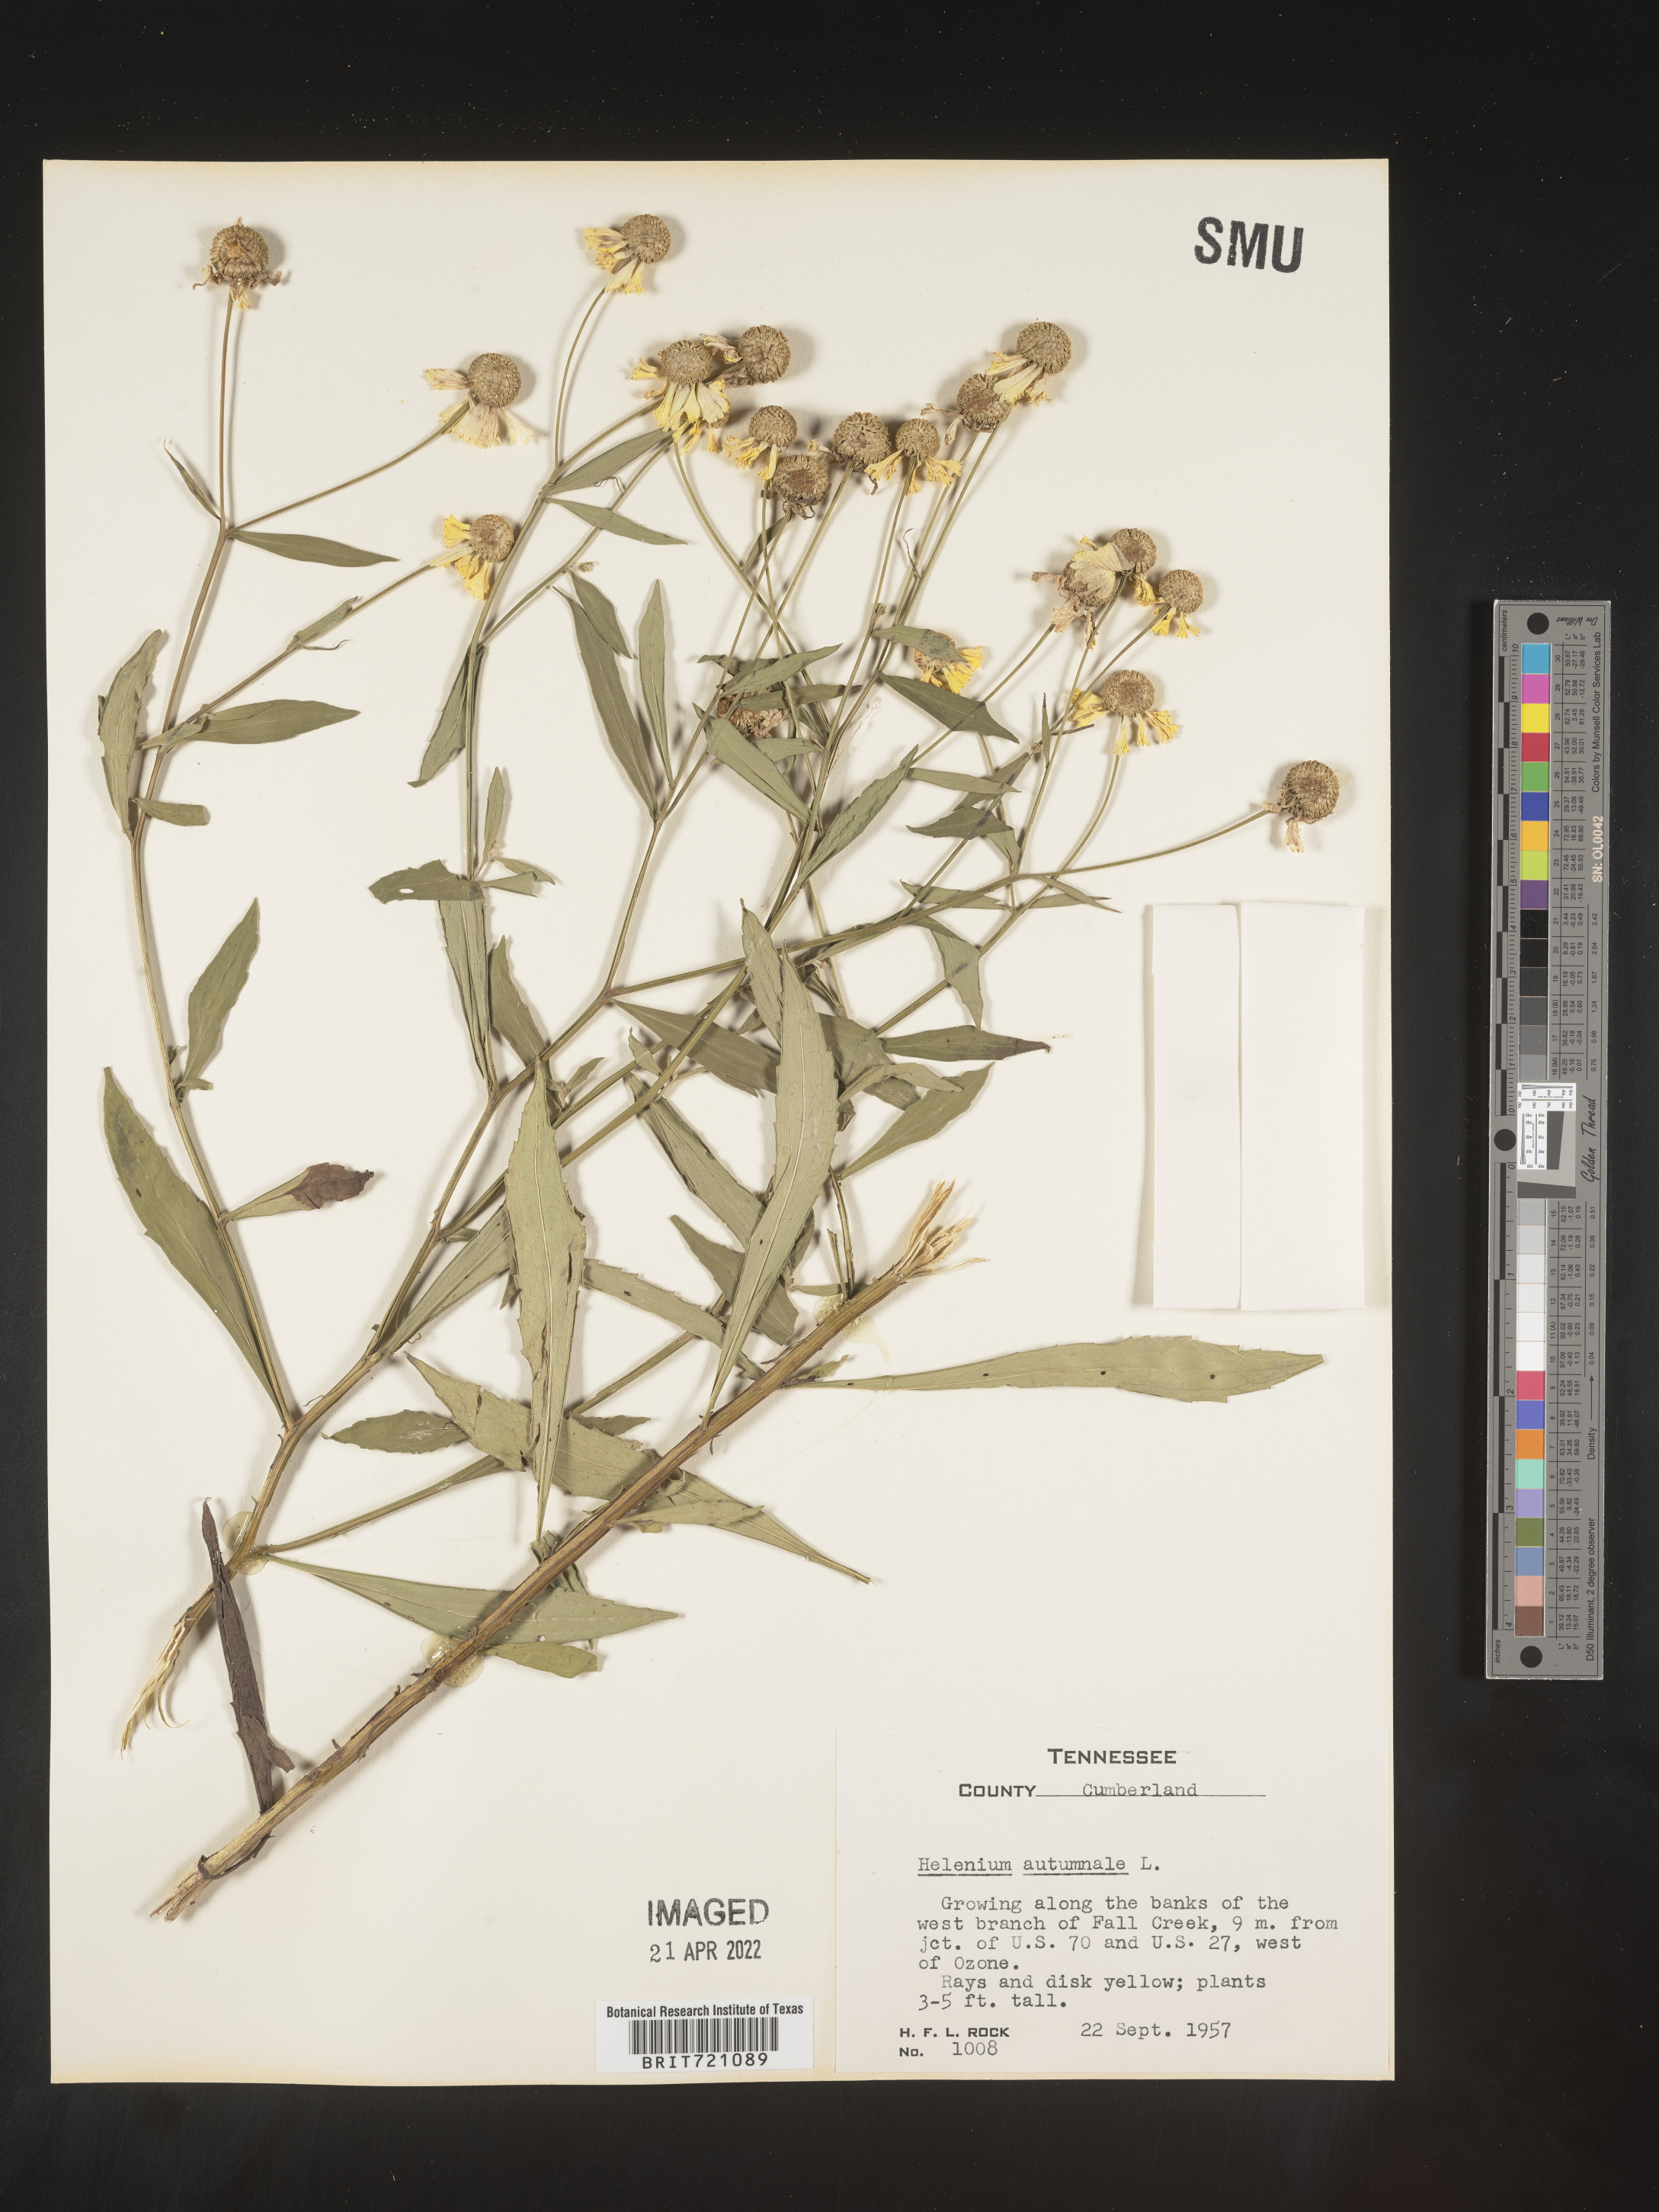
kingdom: Plantae
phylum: Tracheophyta
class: Magnoliopsida
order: Asterales
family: Asteraceae
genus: Helenium
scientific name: Helenium autumnale
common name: Sneezeweed
